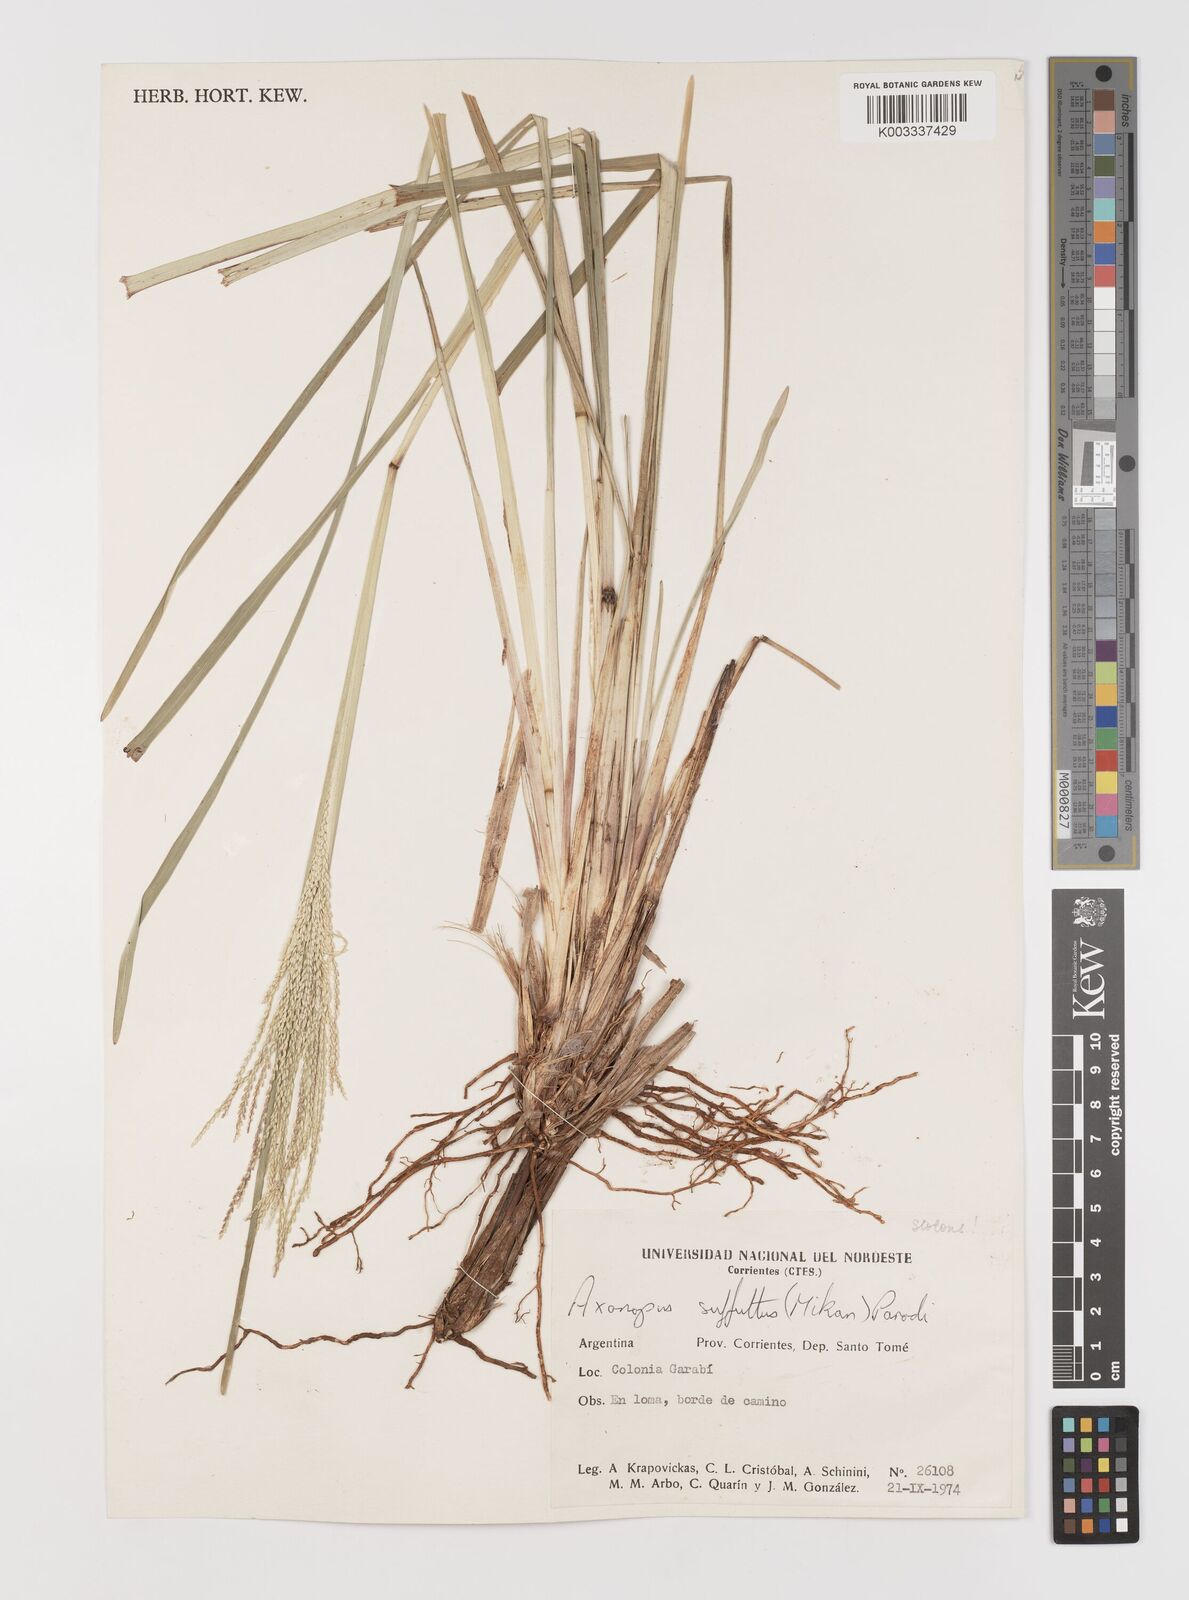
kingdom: Plantae
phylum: Tracheophyta
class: Liliopsida
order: Poales
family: Poaceae
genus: Axonopus
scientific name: Axonopus suffultus
